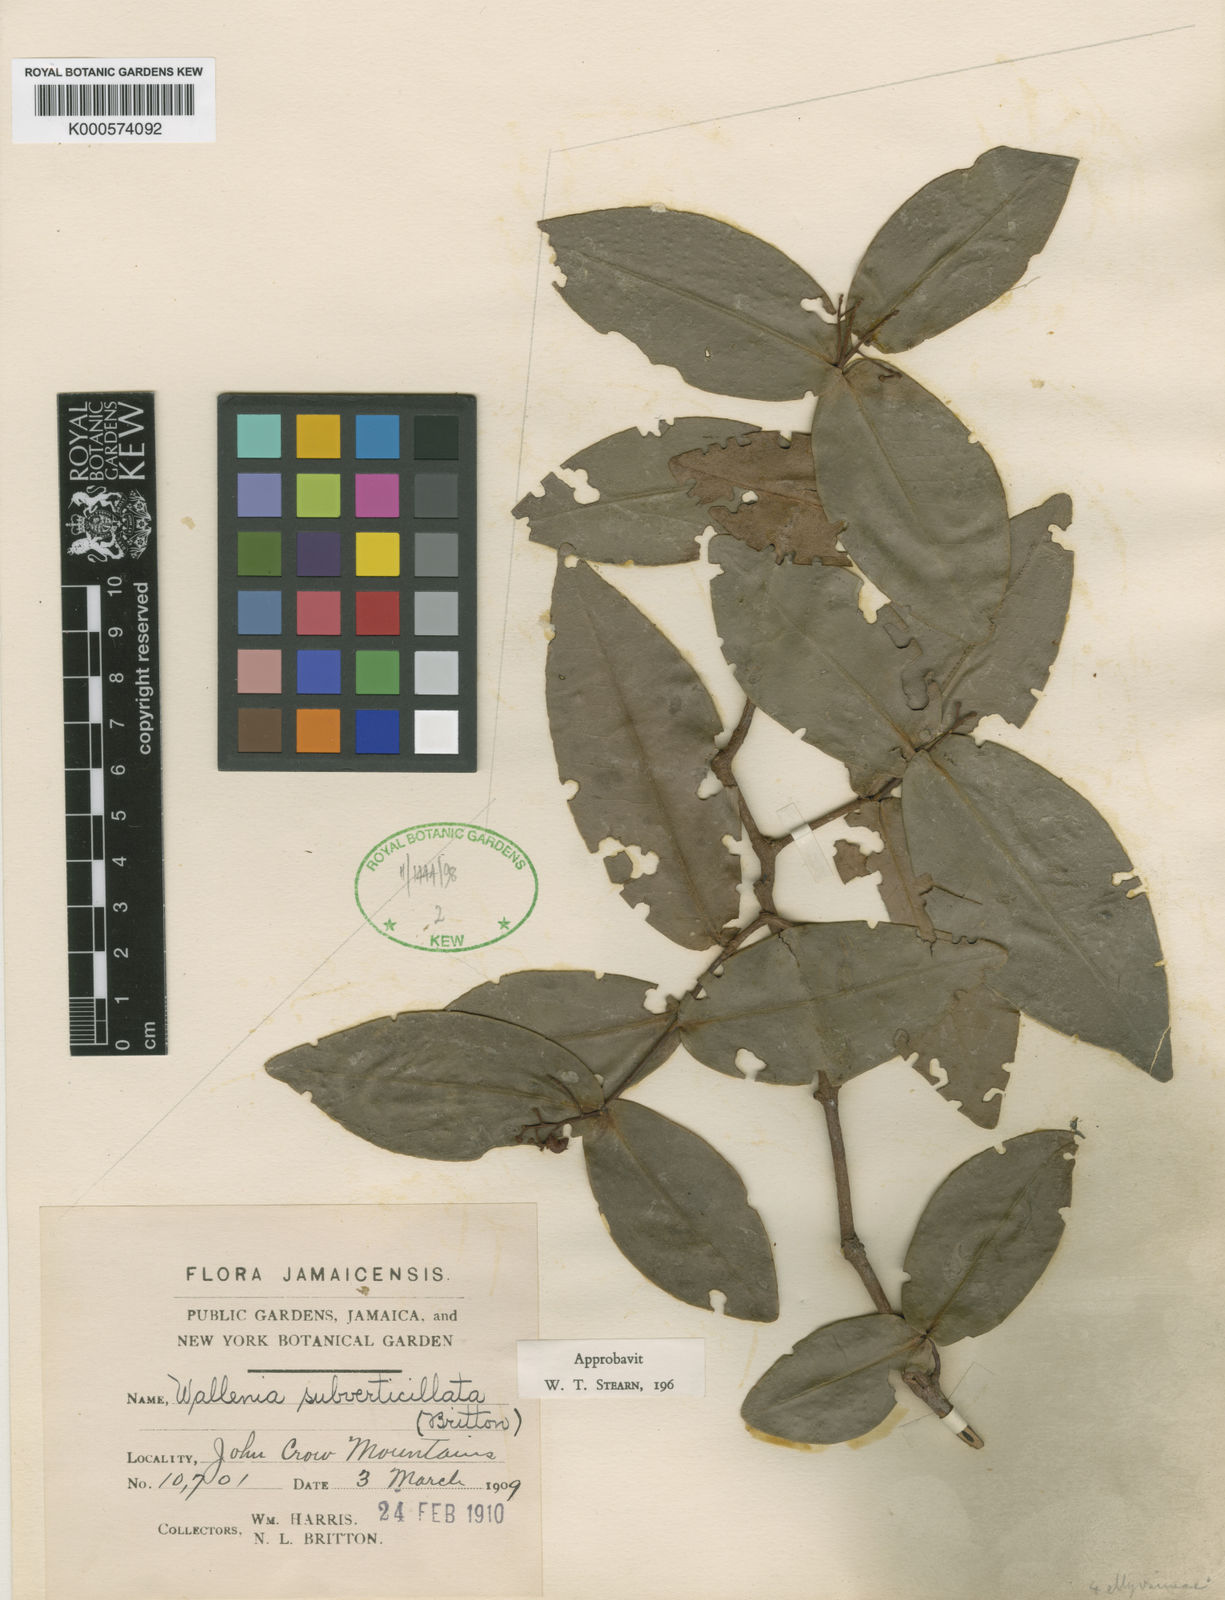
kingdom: Plantae
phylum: Tracheophyta
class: Magnoliopsida
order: Ericales
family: Primulaceae
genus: Wallenia
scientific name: Wallenia subverticillata
